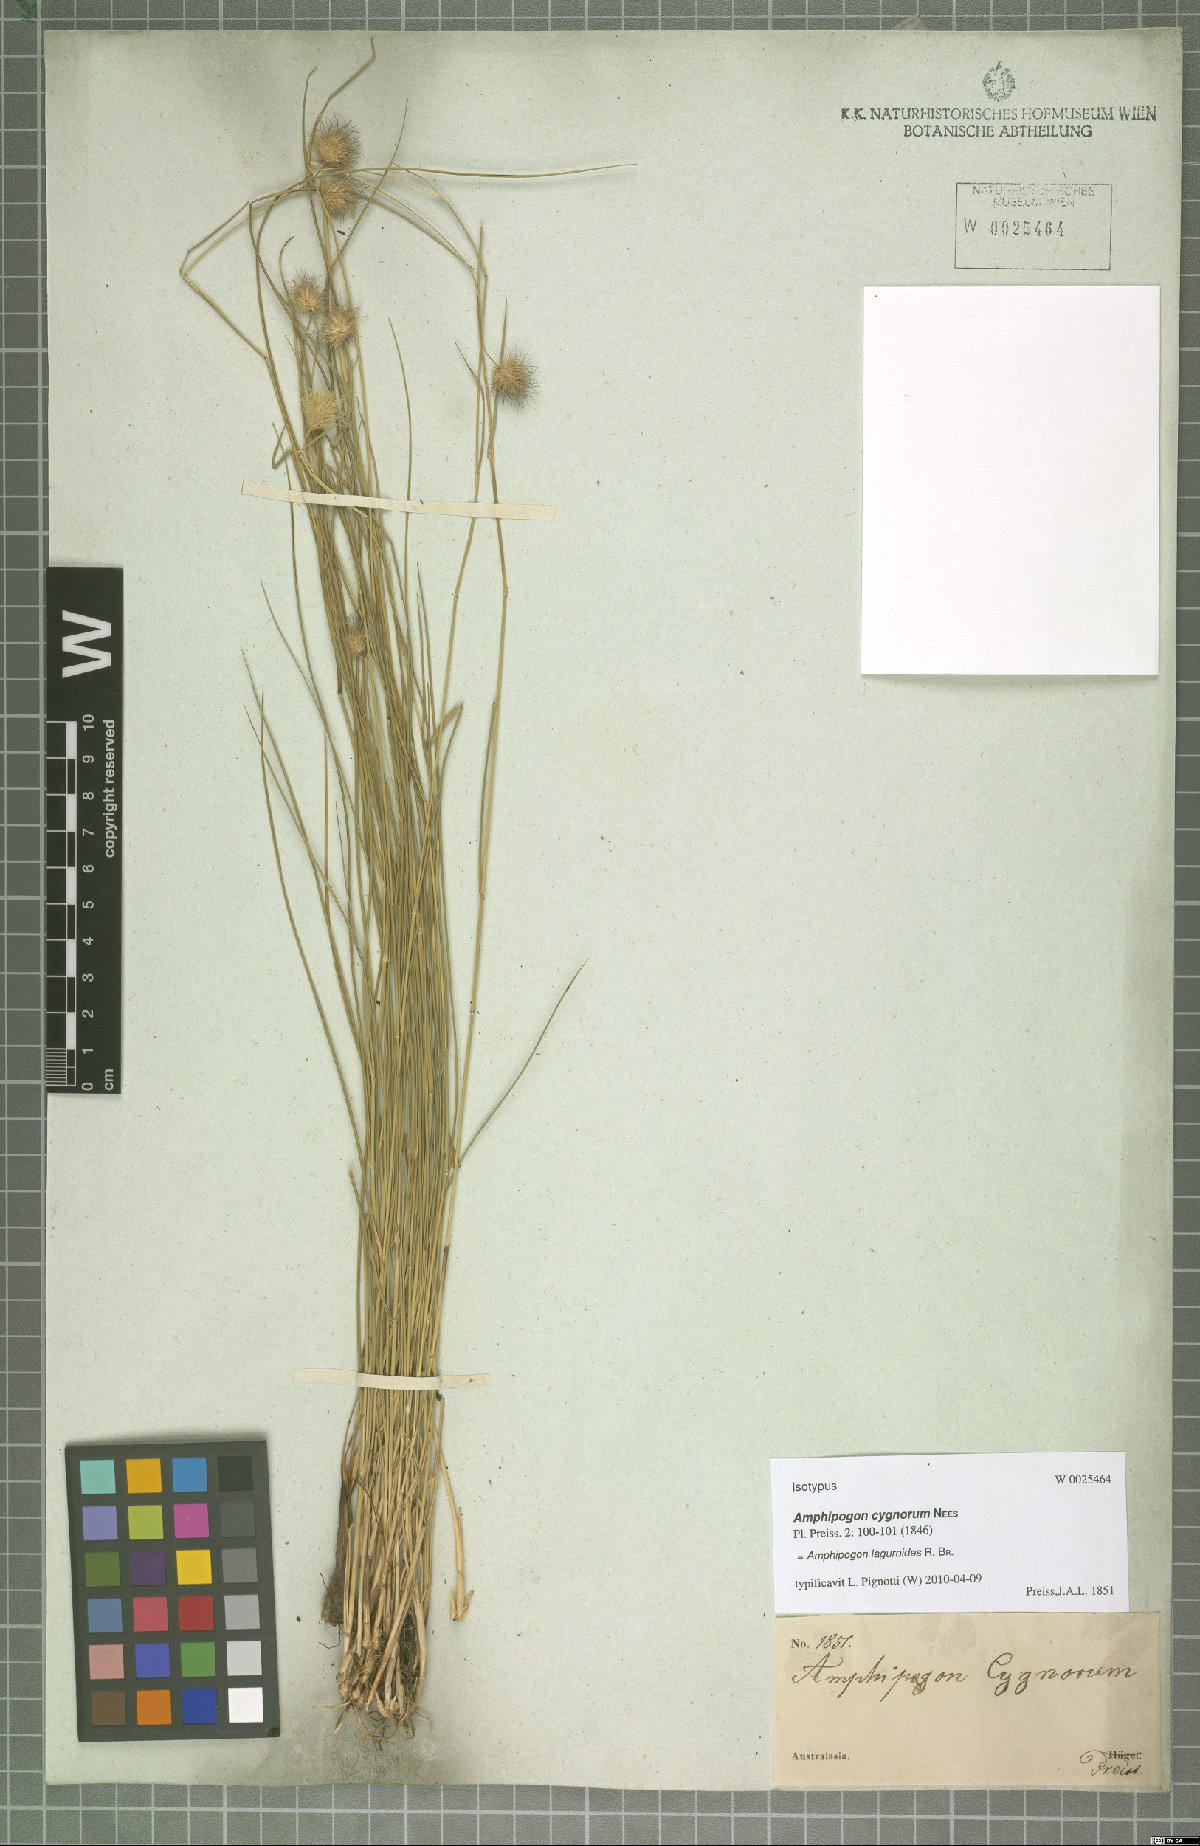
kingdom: Plantae
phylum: Tracheophyta
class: Liliopsida
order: Poales
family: Poaceae
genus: Amphipogon
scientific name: Amphipogon laguroides
